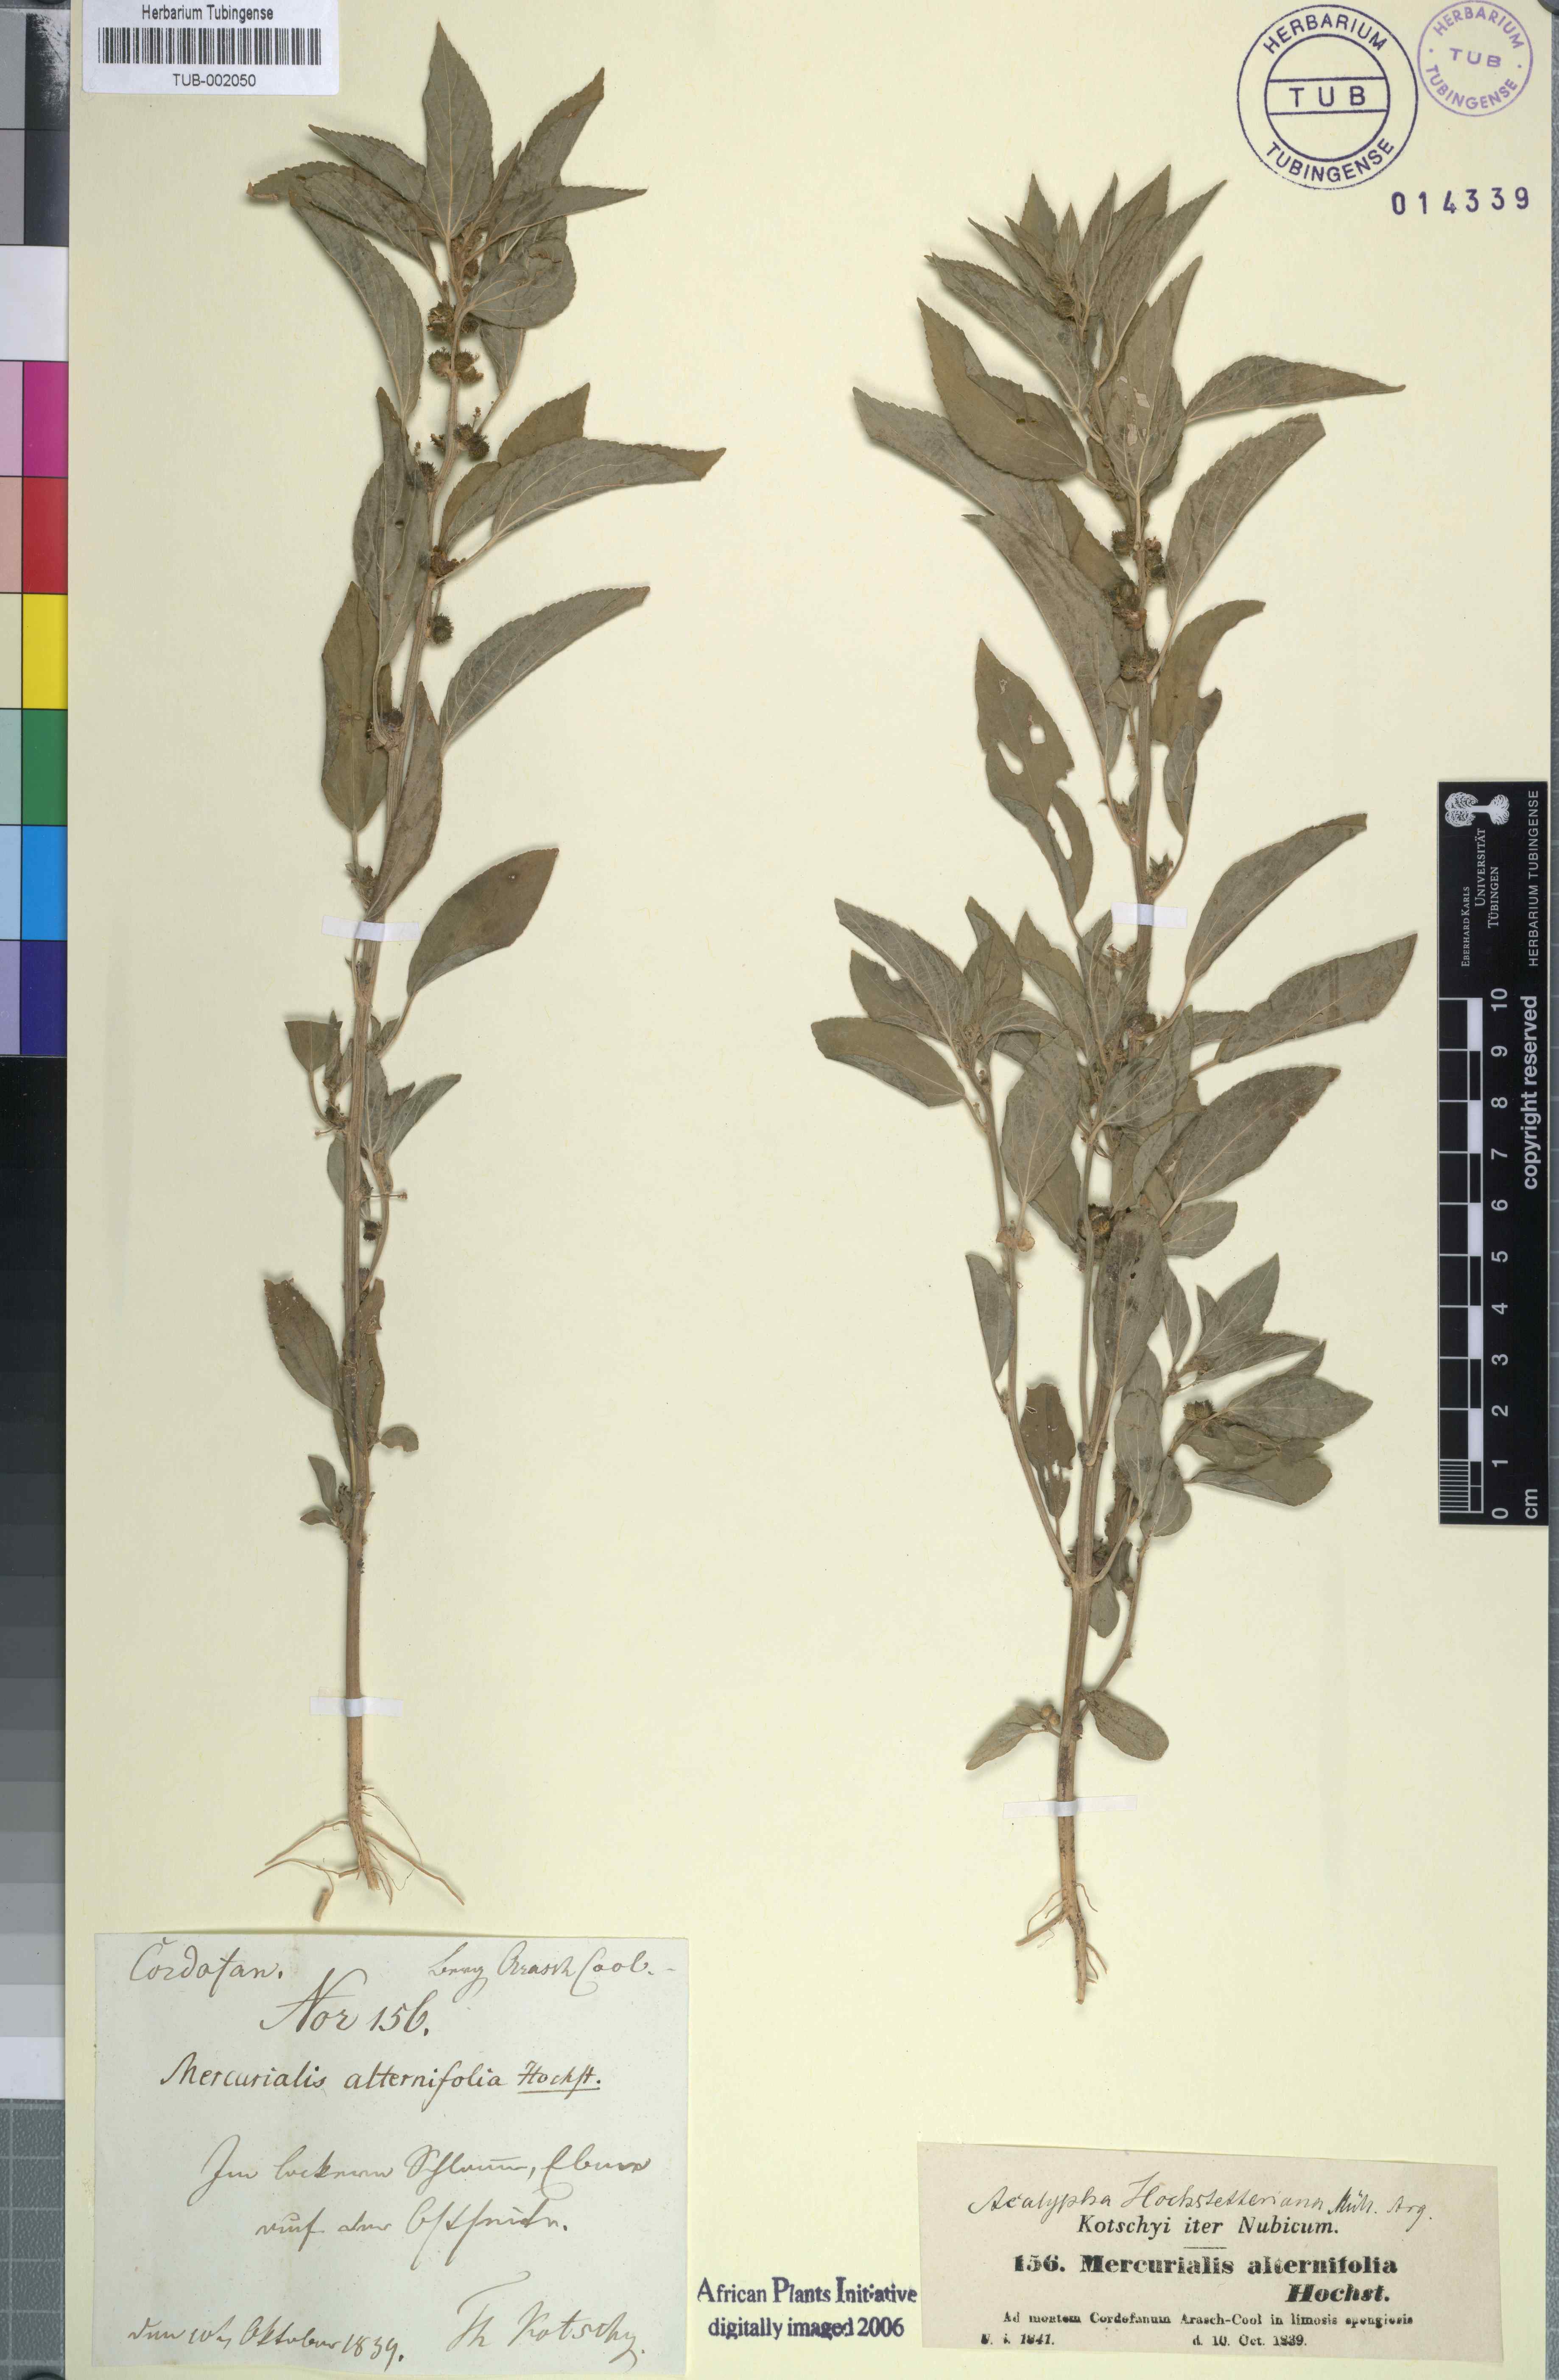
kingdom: Plantae
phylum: Tracheophyta
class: Magnoliopsida
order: Malpighiales
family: Euphorbiaceae
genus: Acalypha
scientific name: Acalypha hochstetteriana
